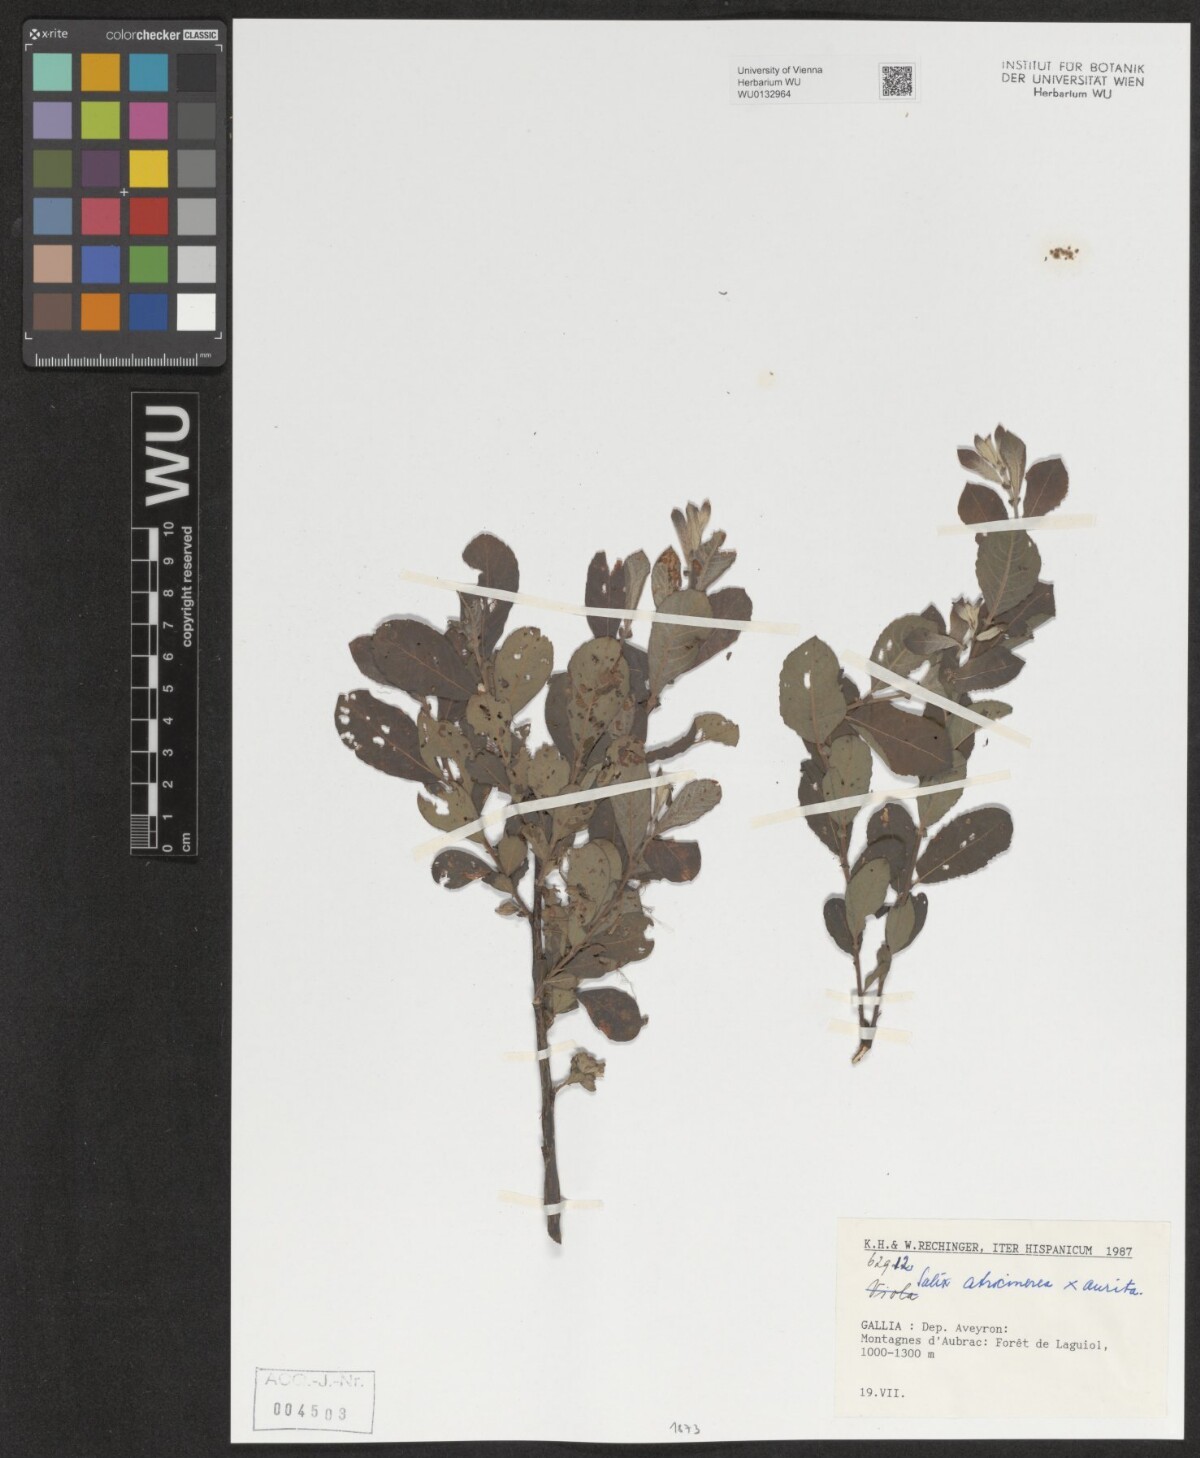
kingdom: Plantae
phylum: Tracheophyta
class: Magnoliopsida
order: Malpighiales
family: Salicaceae
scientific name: Salicaceae
